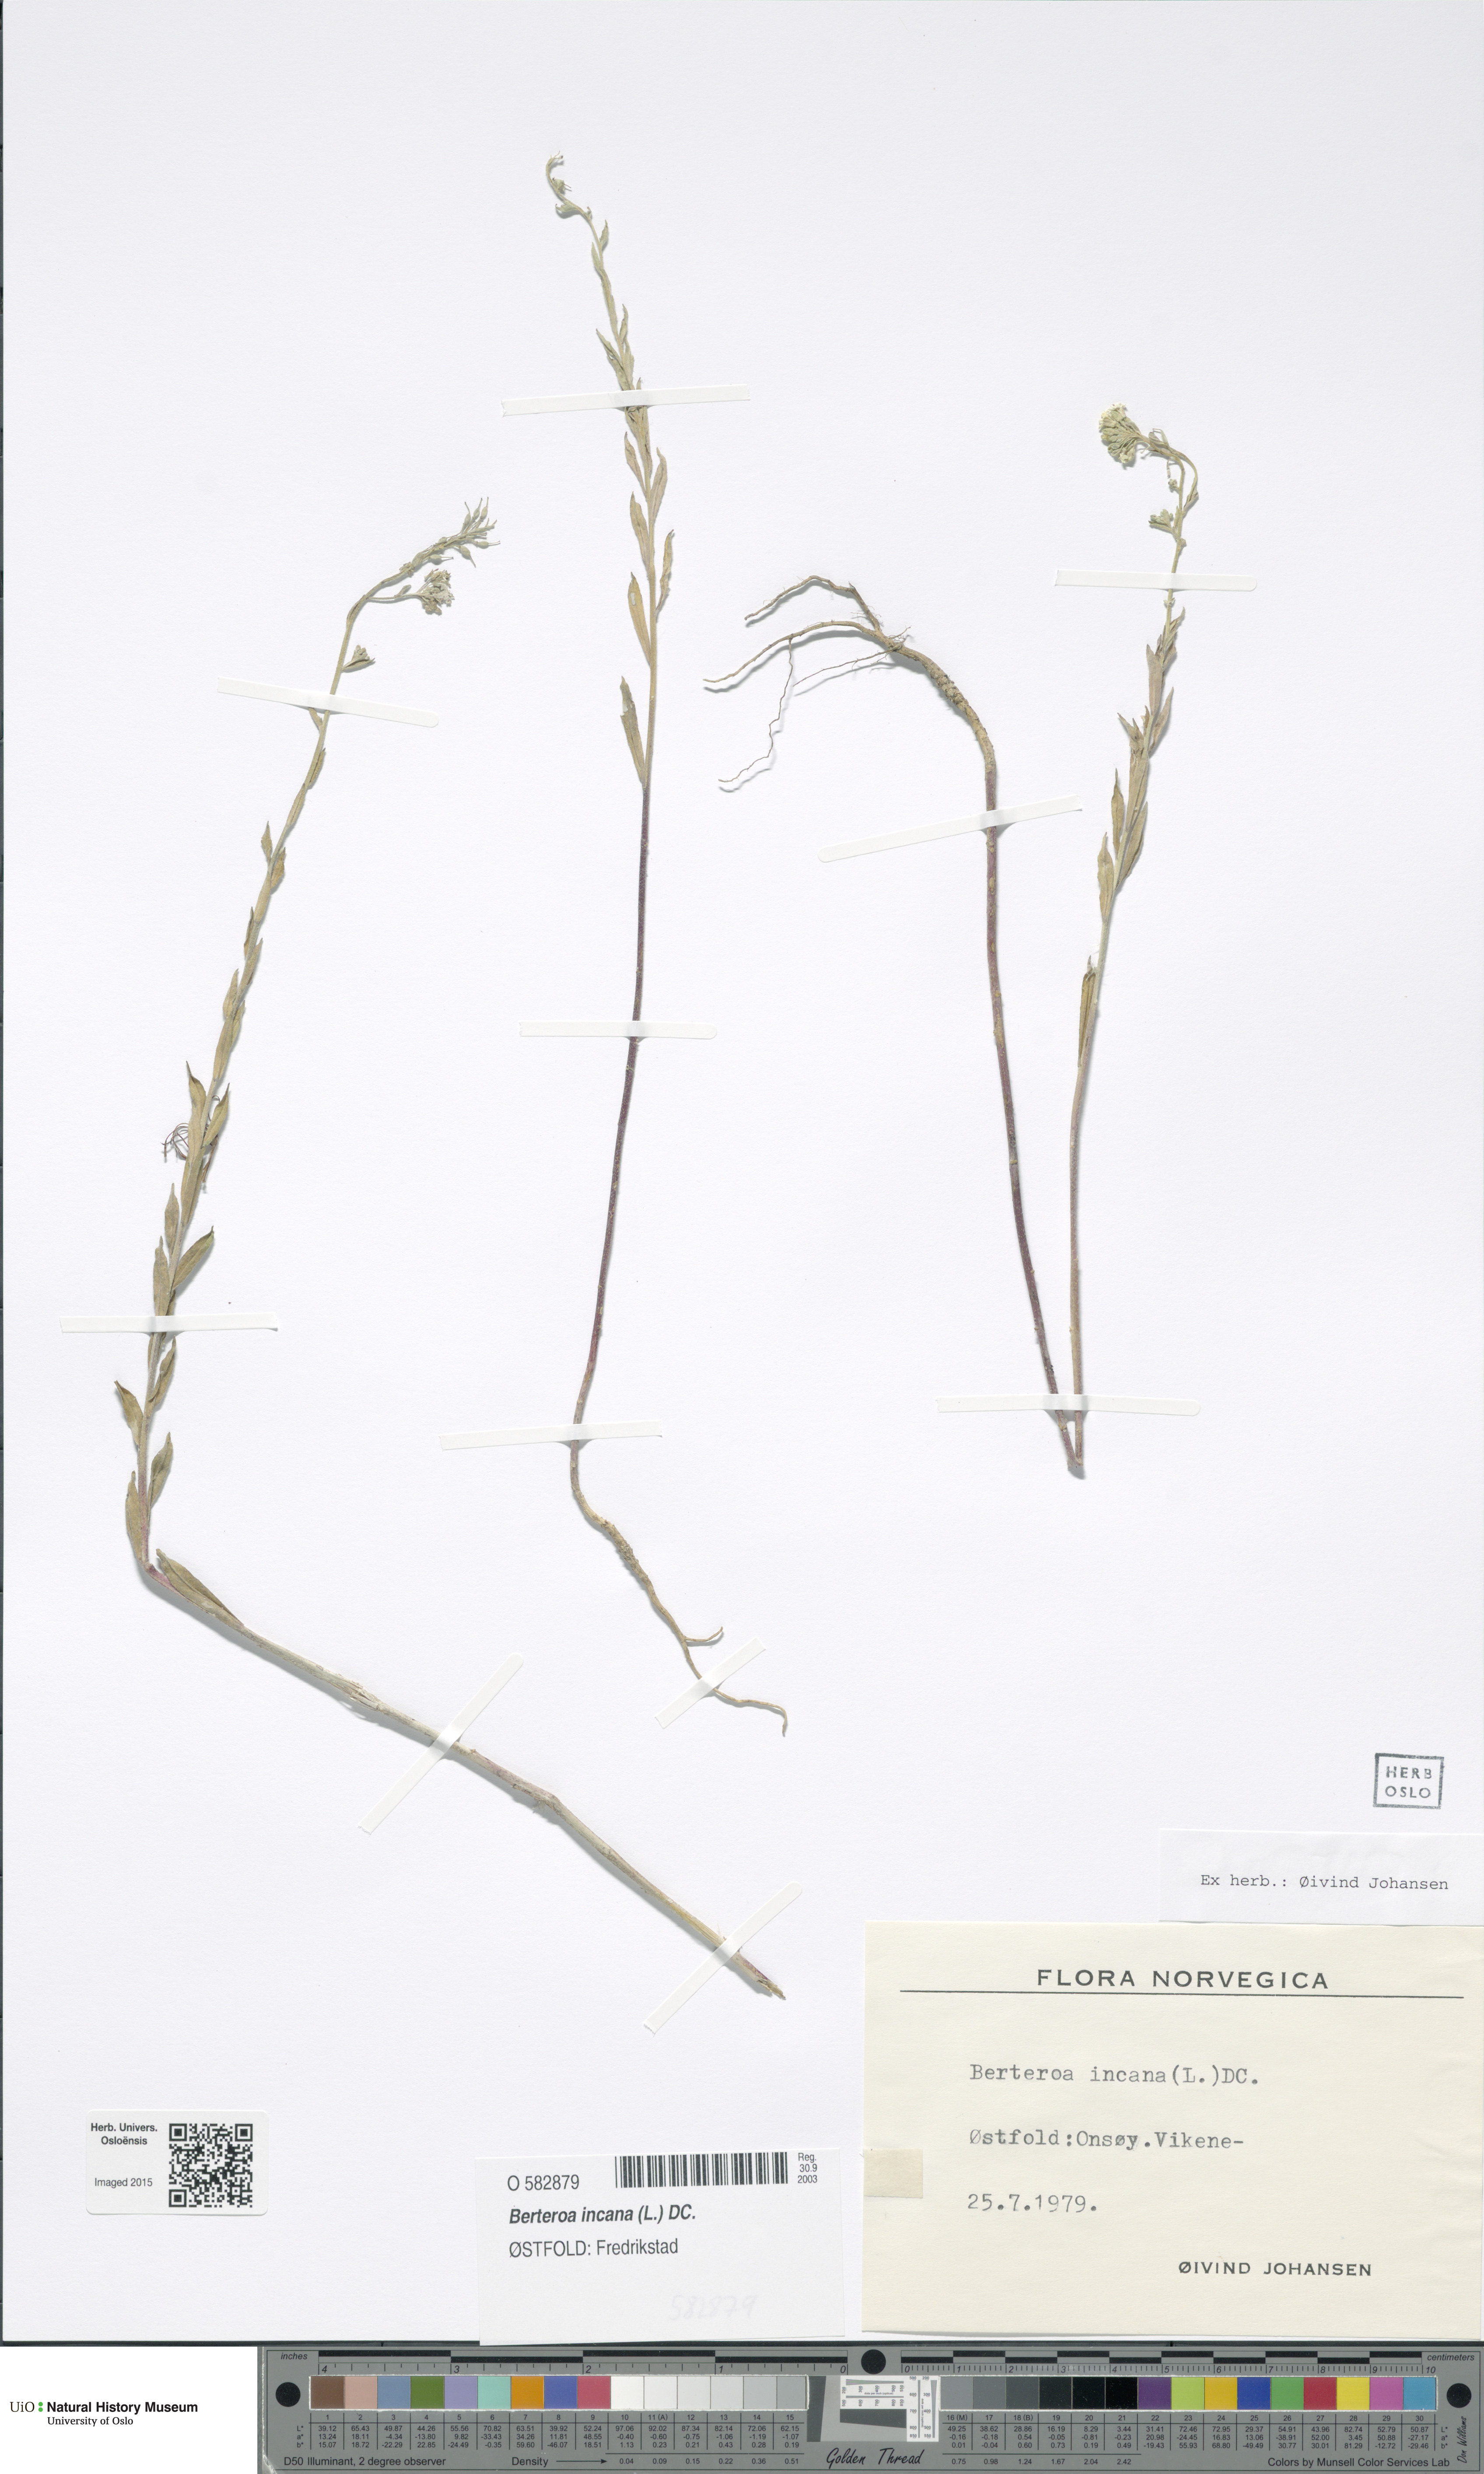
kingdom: Plantae
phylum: Tracheophyta
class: Magnoliopsida
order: Brassicales
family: Brassicaceae
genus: Berteroa
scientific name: Berteroa incana
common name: Hoary alison
